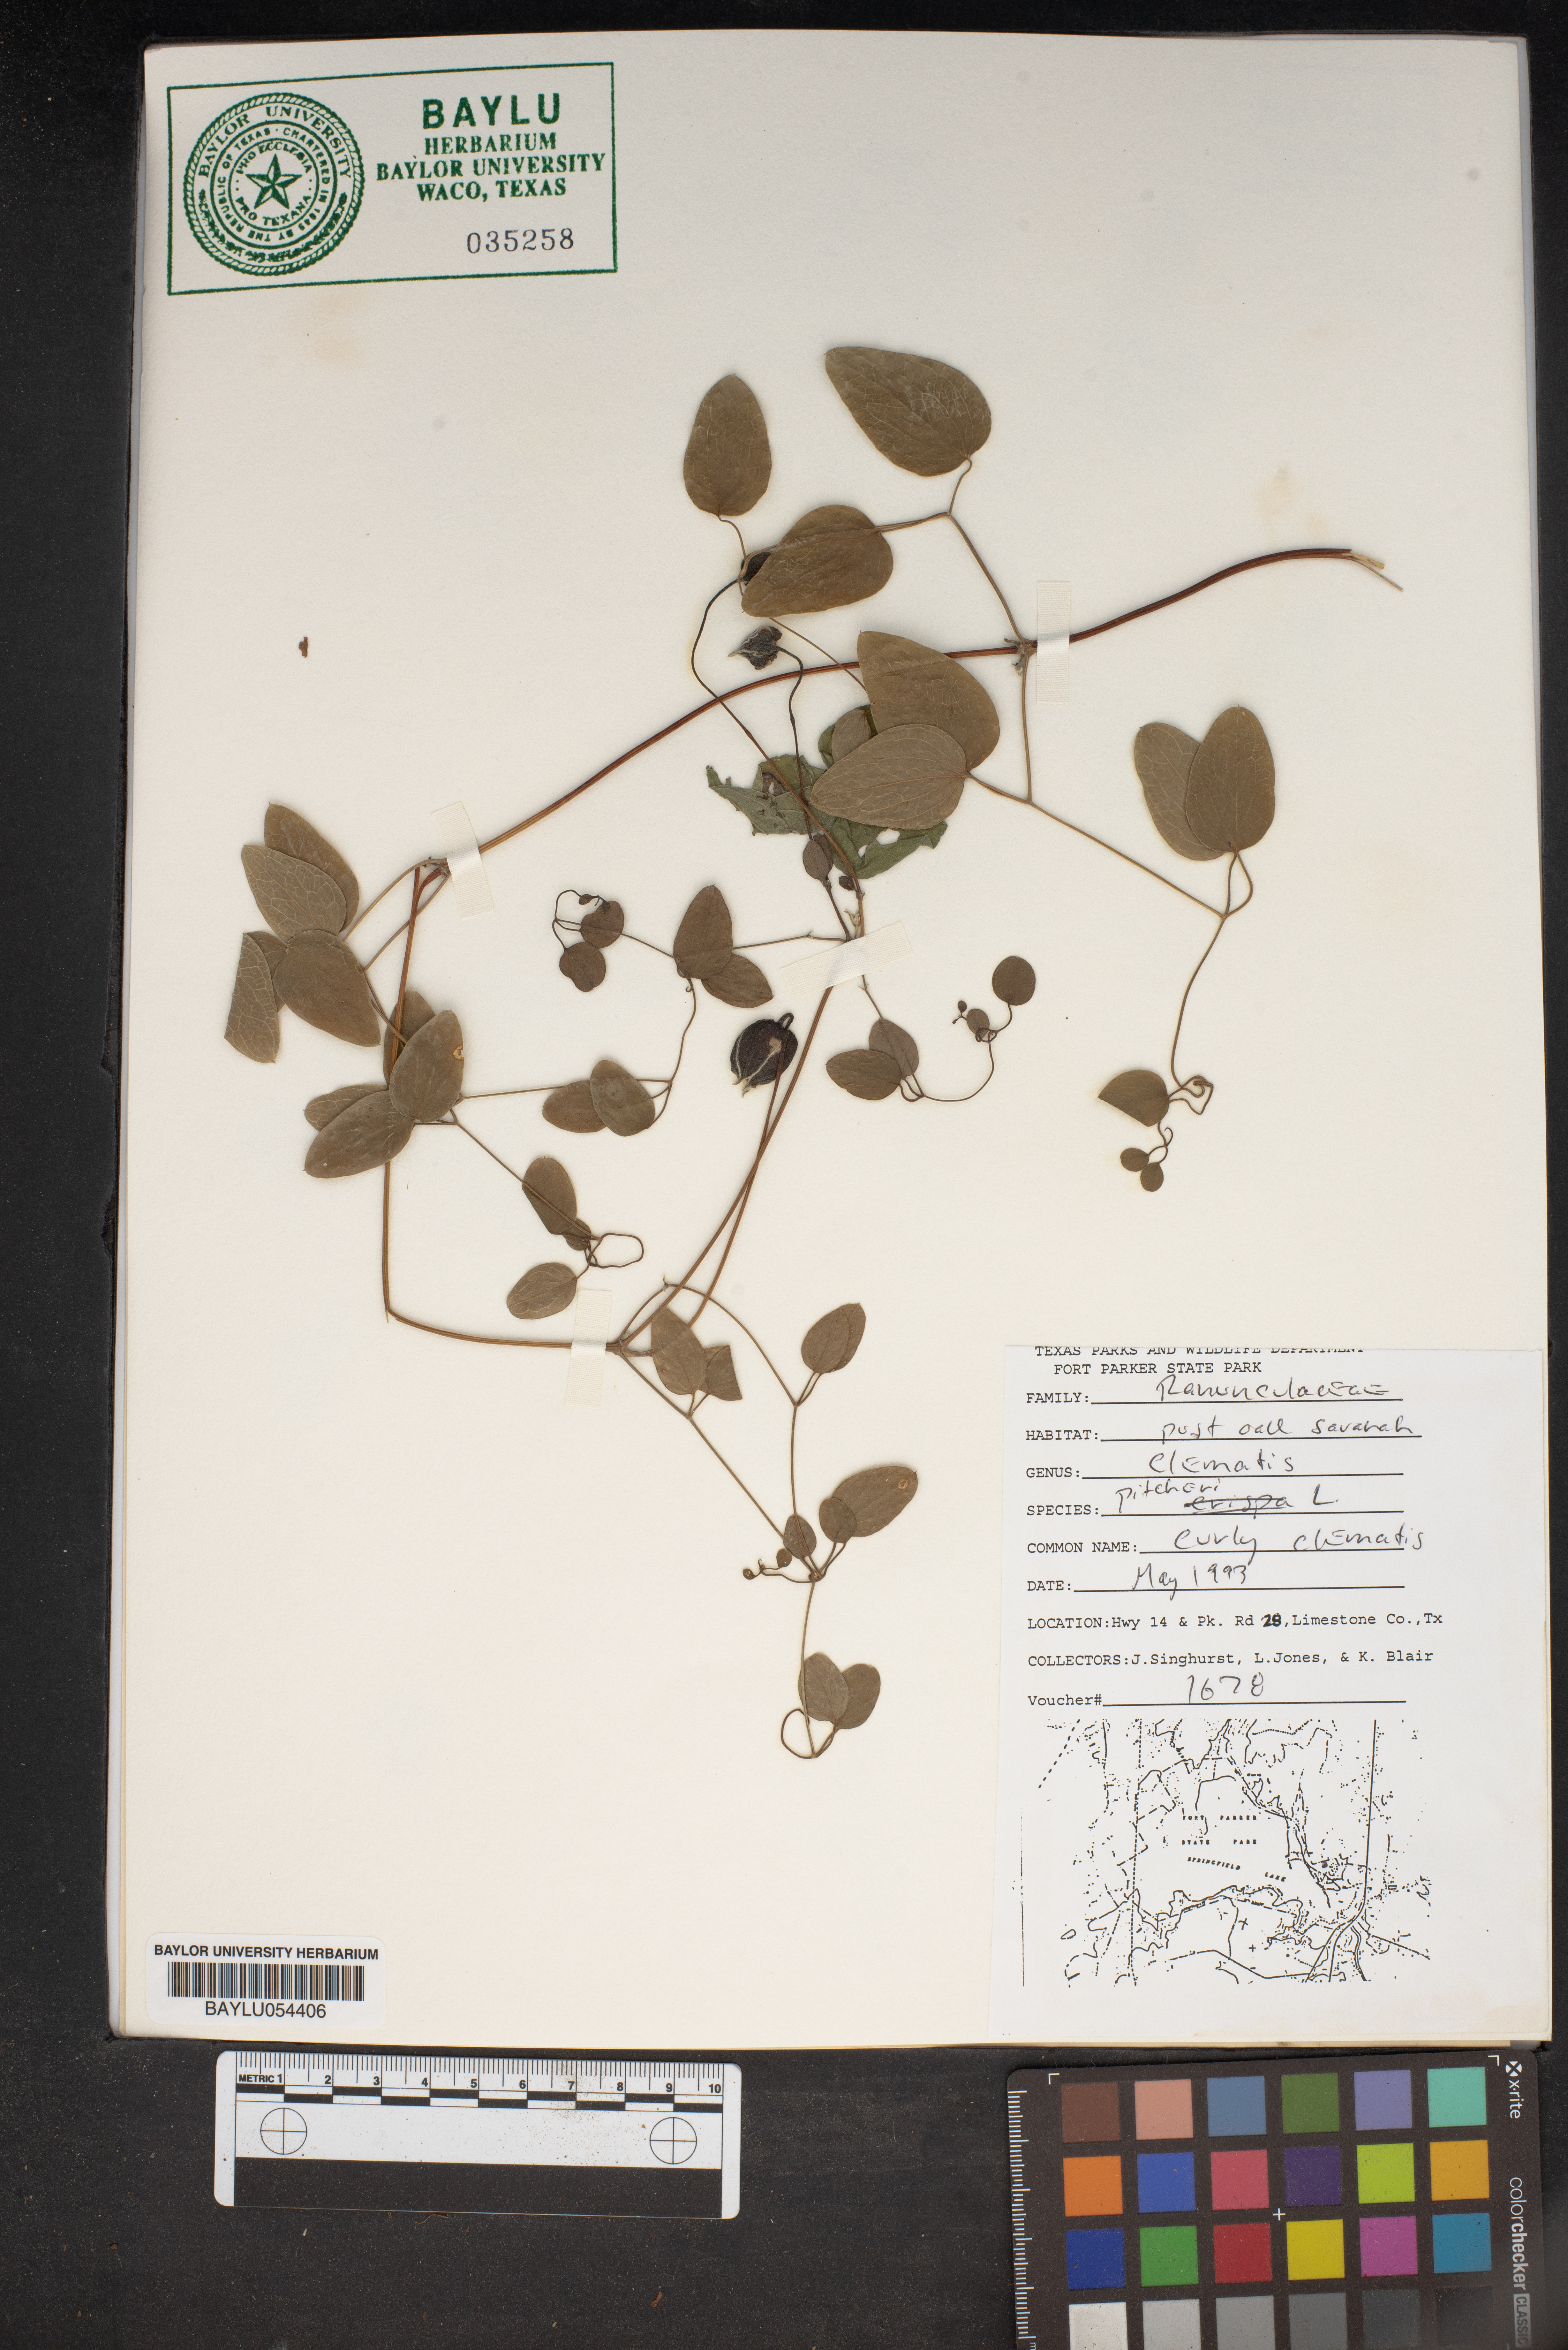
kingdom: Plantae
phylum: Tracheophyta
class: Magnoliopsida
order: Ranunculales
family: Ranunculaceae
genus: Clematis
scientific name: Clematis pitcheri
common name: Bellflower clematis
